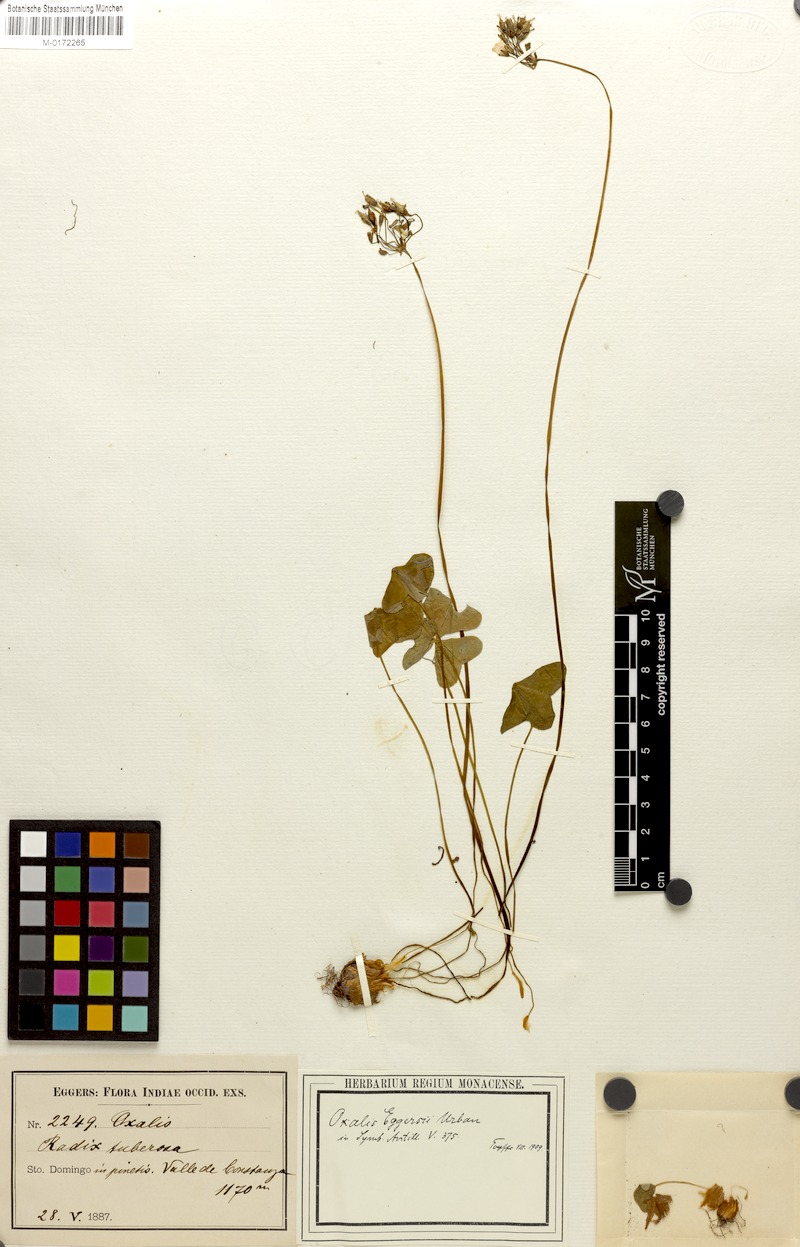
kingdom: Plantae
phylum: Tracheophyta
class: Magnoliopsida
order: Oxalidales
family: Oxalidaceae
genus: Oxalis
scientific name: Oxalis latifolia
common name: Garden pink-sorrel
